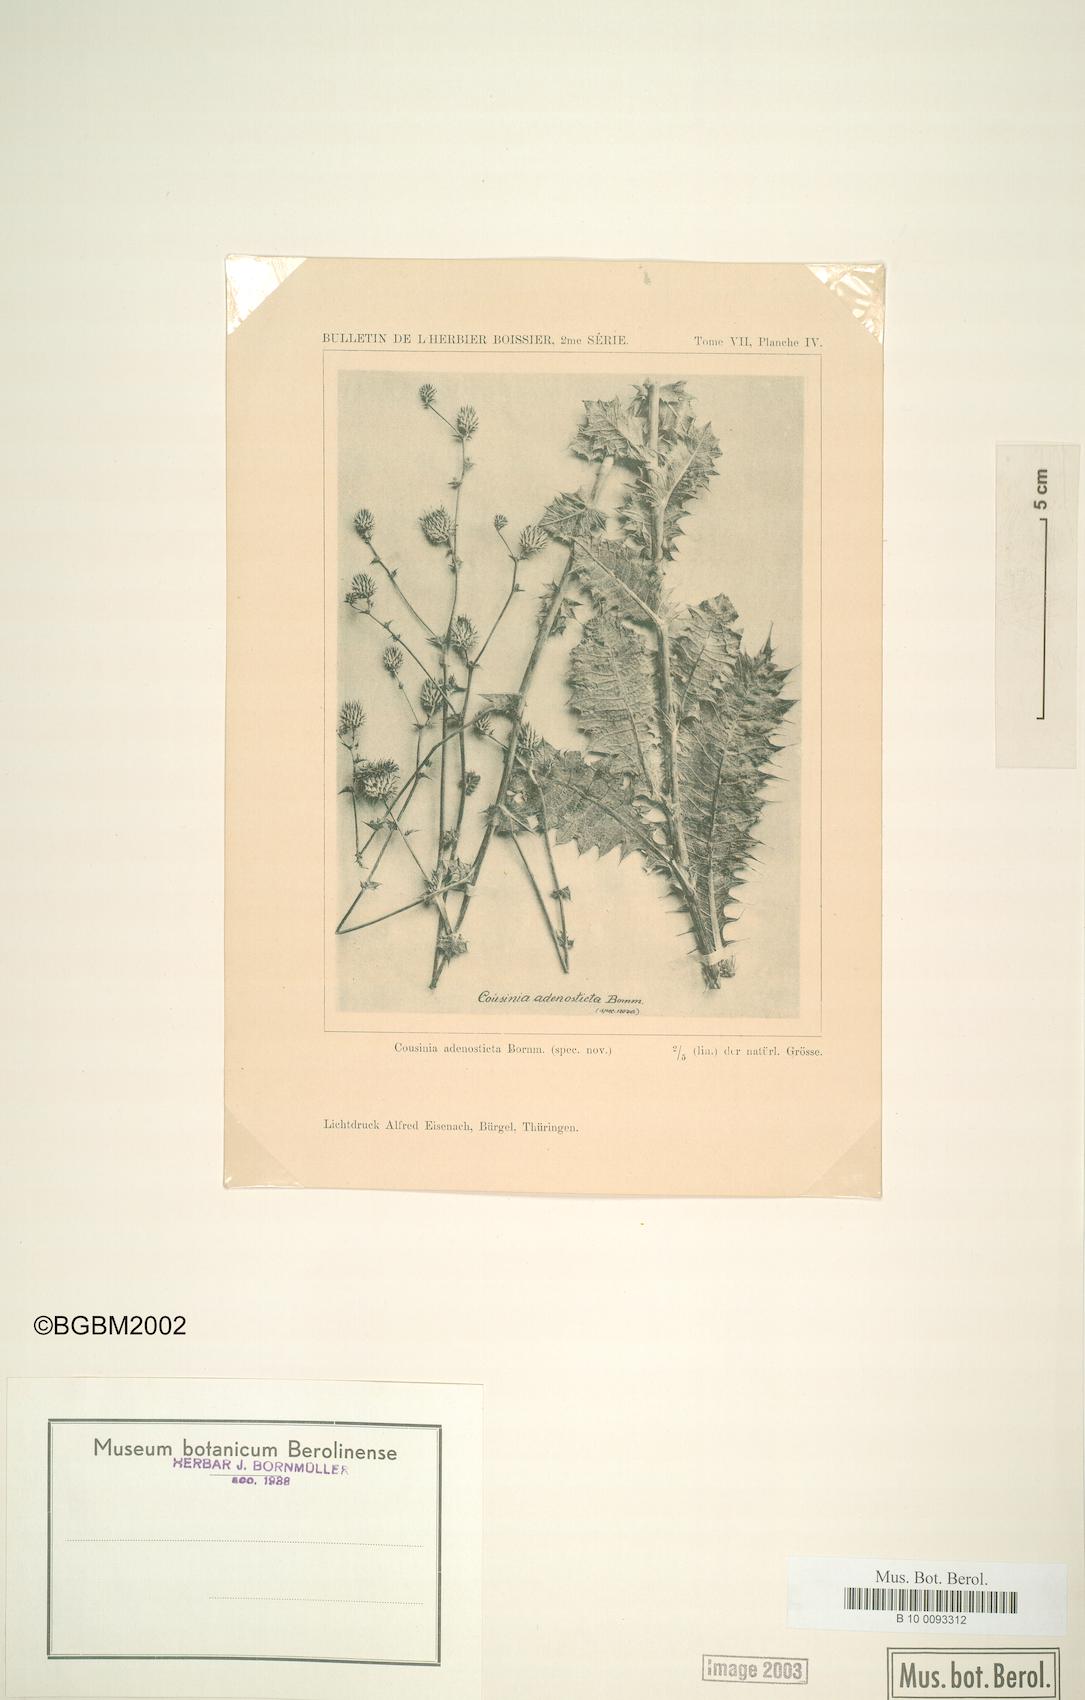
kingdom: Plantae
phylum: Tracheophyta
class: Magnoliopsida
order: Asterales
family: Asteraceae
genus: Cousinia
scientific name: Cousinia adenosticta
